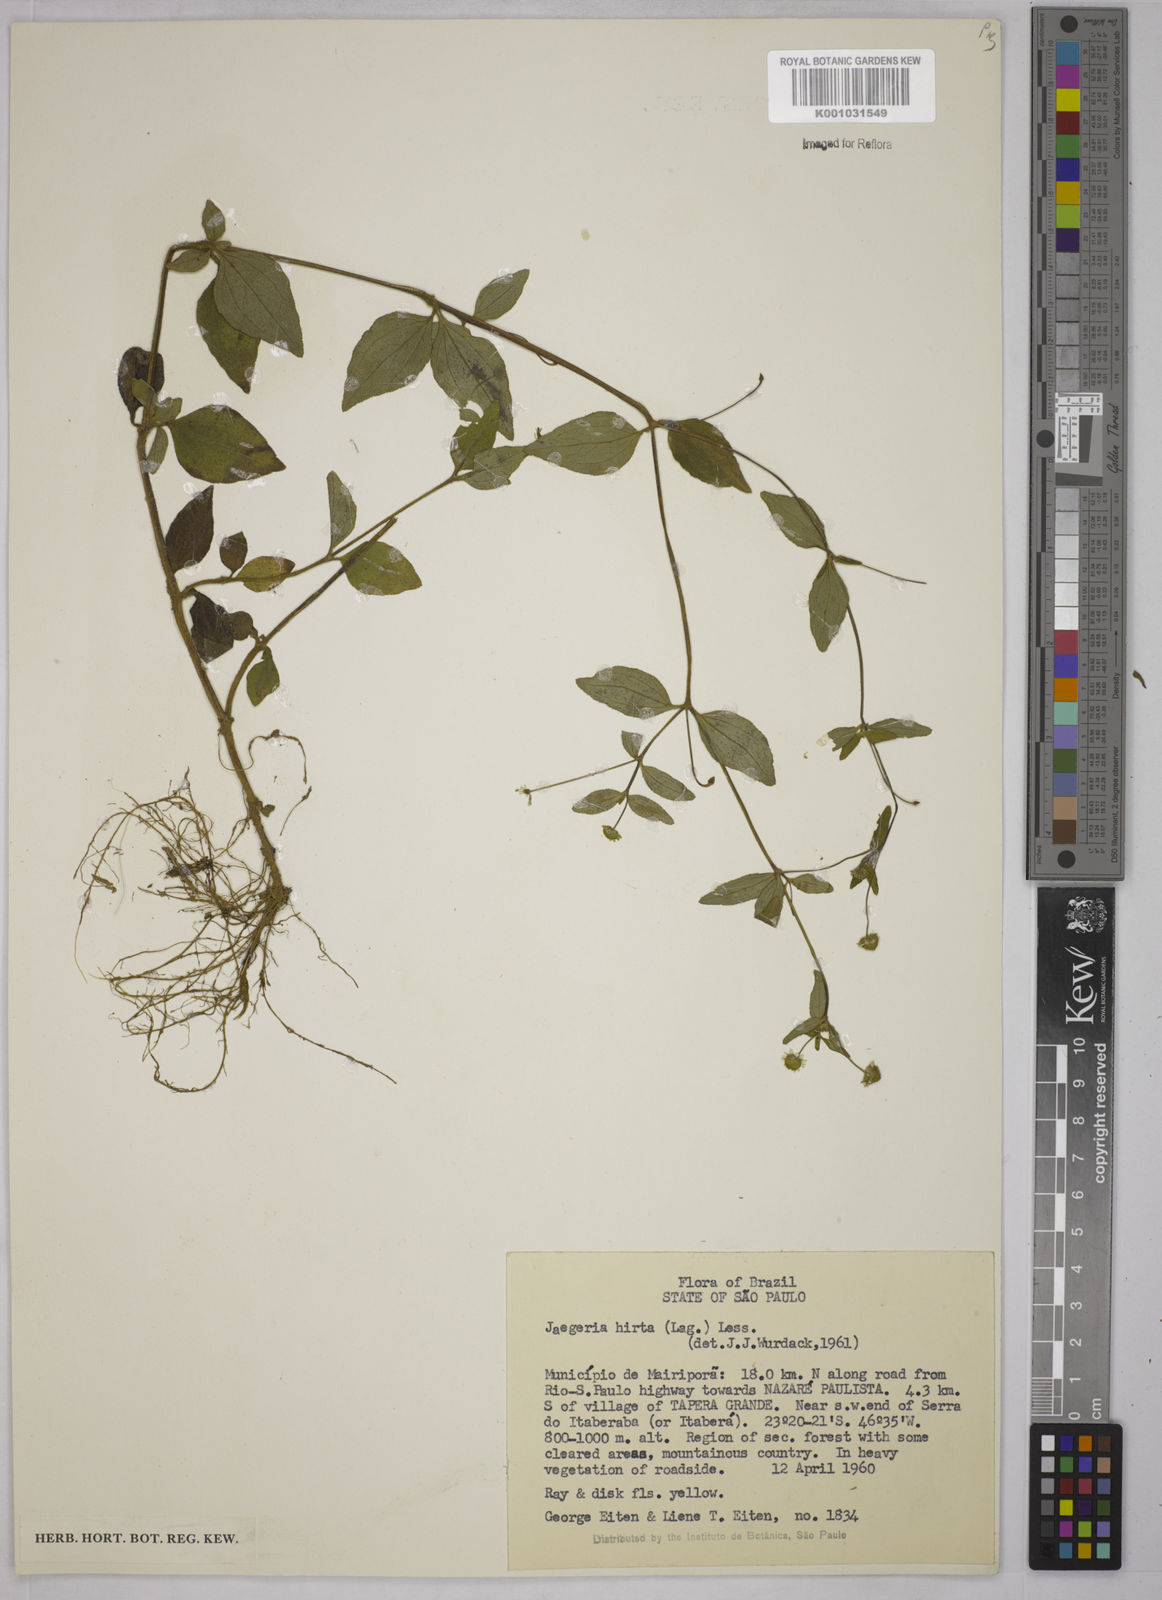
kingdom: Plantae
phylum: Tracheophyta
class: Magnoliopsida
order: Asterales
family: Asteraceae
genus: Jaegeria
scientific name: Jaegeria hirta
